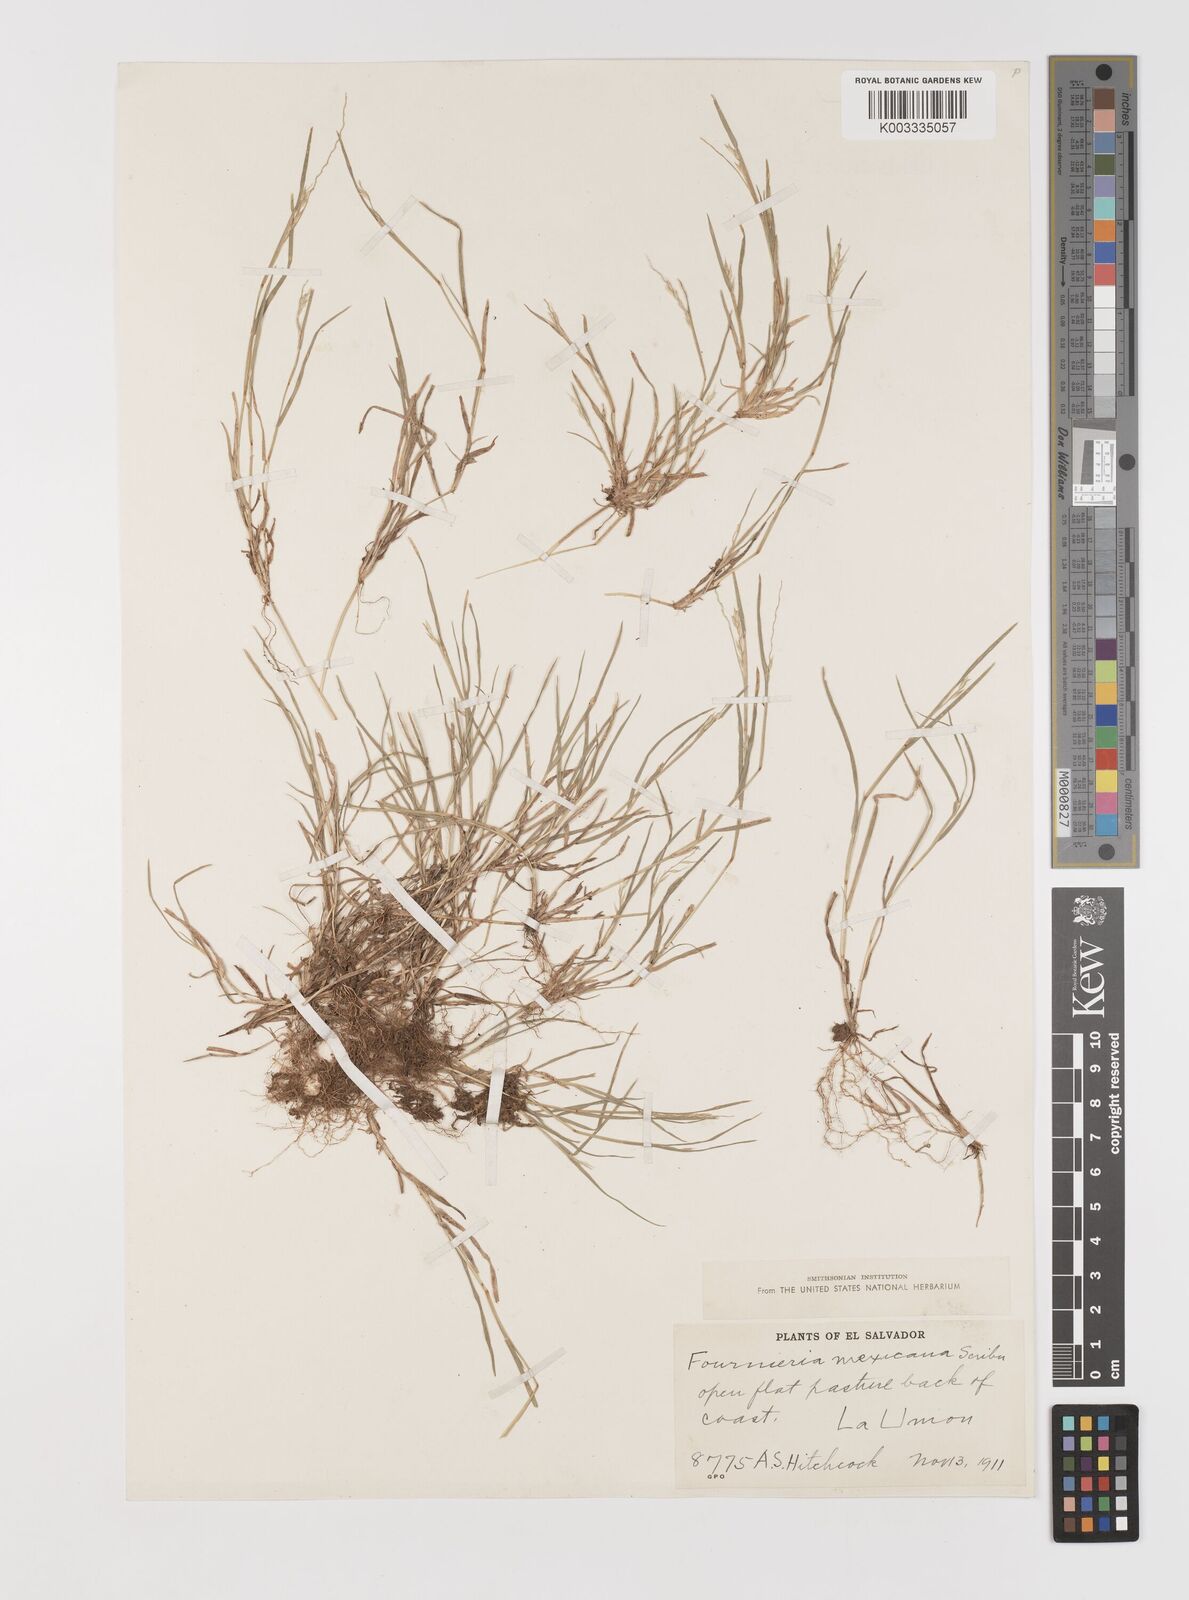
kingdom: Plantae
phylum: Tracheophyta
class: Liliopsida
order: Poales
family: Poaceae
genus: Bouteloua
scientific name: Bouteloua mexicana
